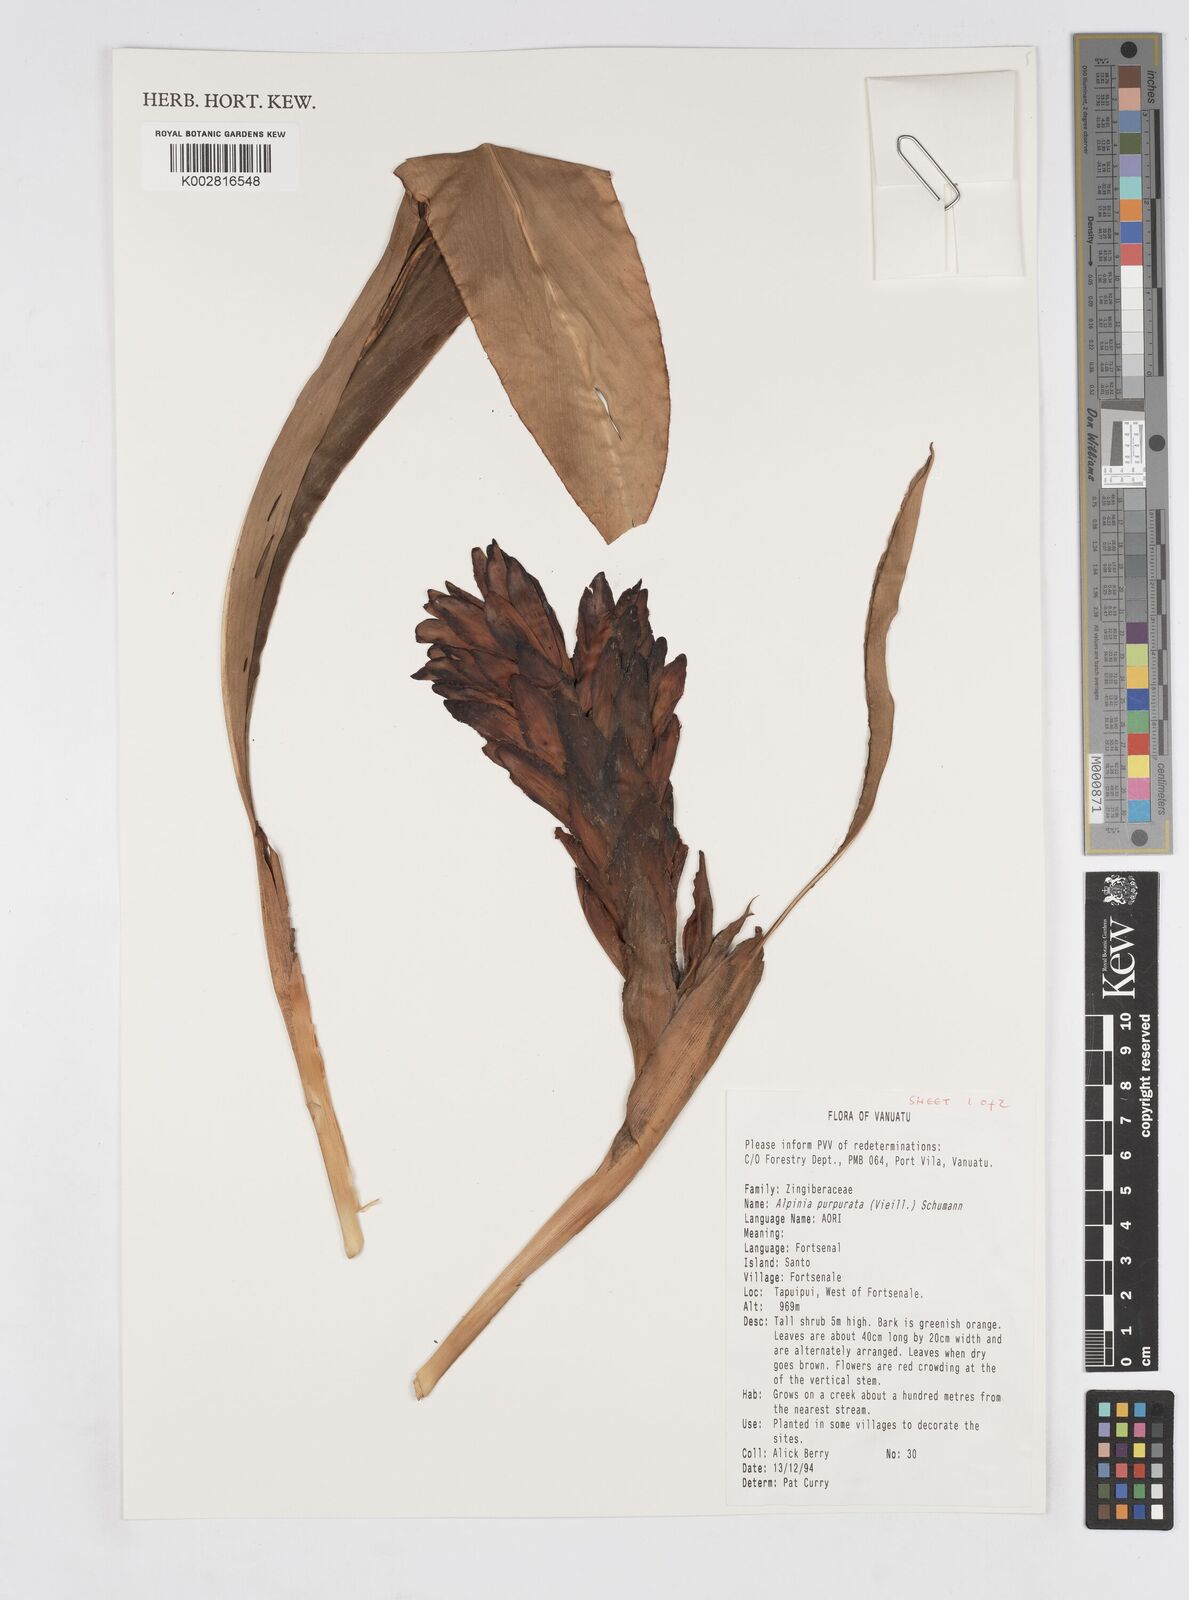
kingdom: Plantae
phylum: Tracheophyta
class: Liliopsida
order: Zingiberales
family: Zingiberaceae
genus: Alpinia
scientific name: Alpinia purpurata
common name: Red ginger
